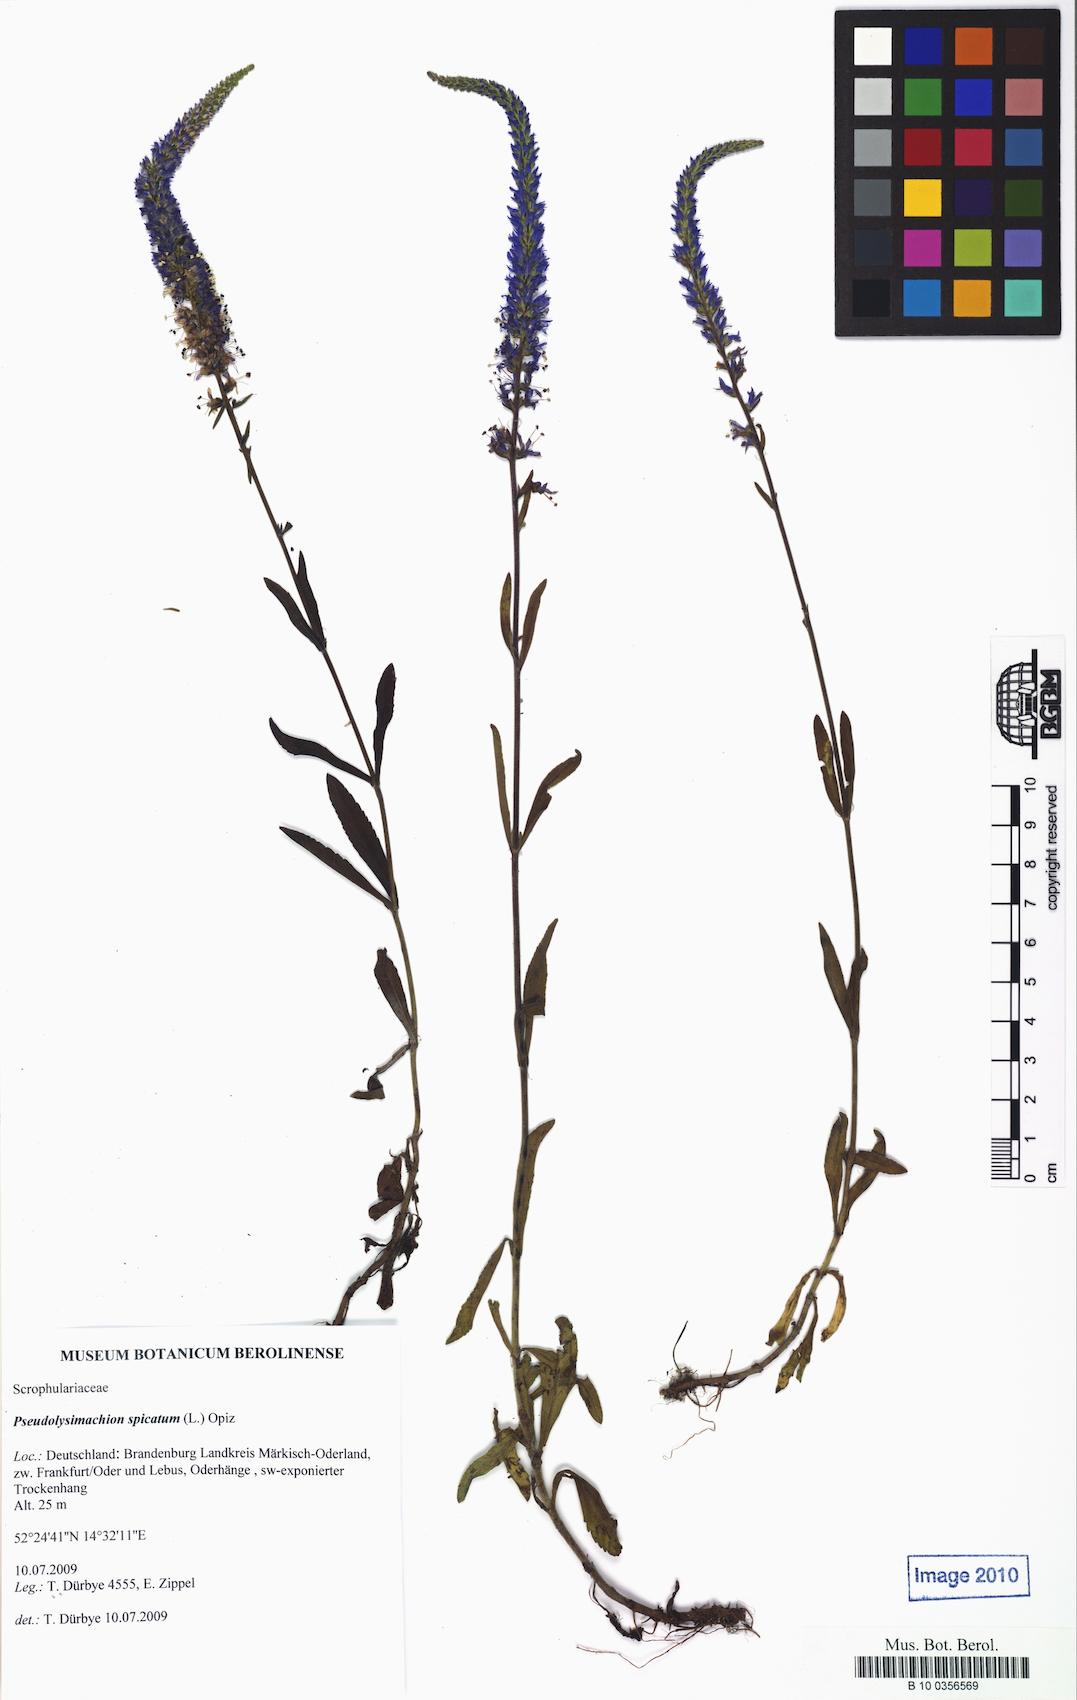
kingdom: Plantae
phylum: Tracheophyta
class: Magnoliopsida
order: Lamiales
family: Plantaginaceae
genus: Veronica
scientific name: Veronica spicata
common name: Spiked speedwell
